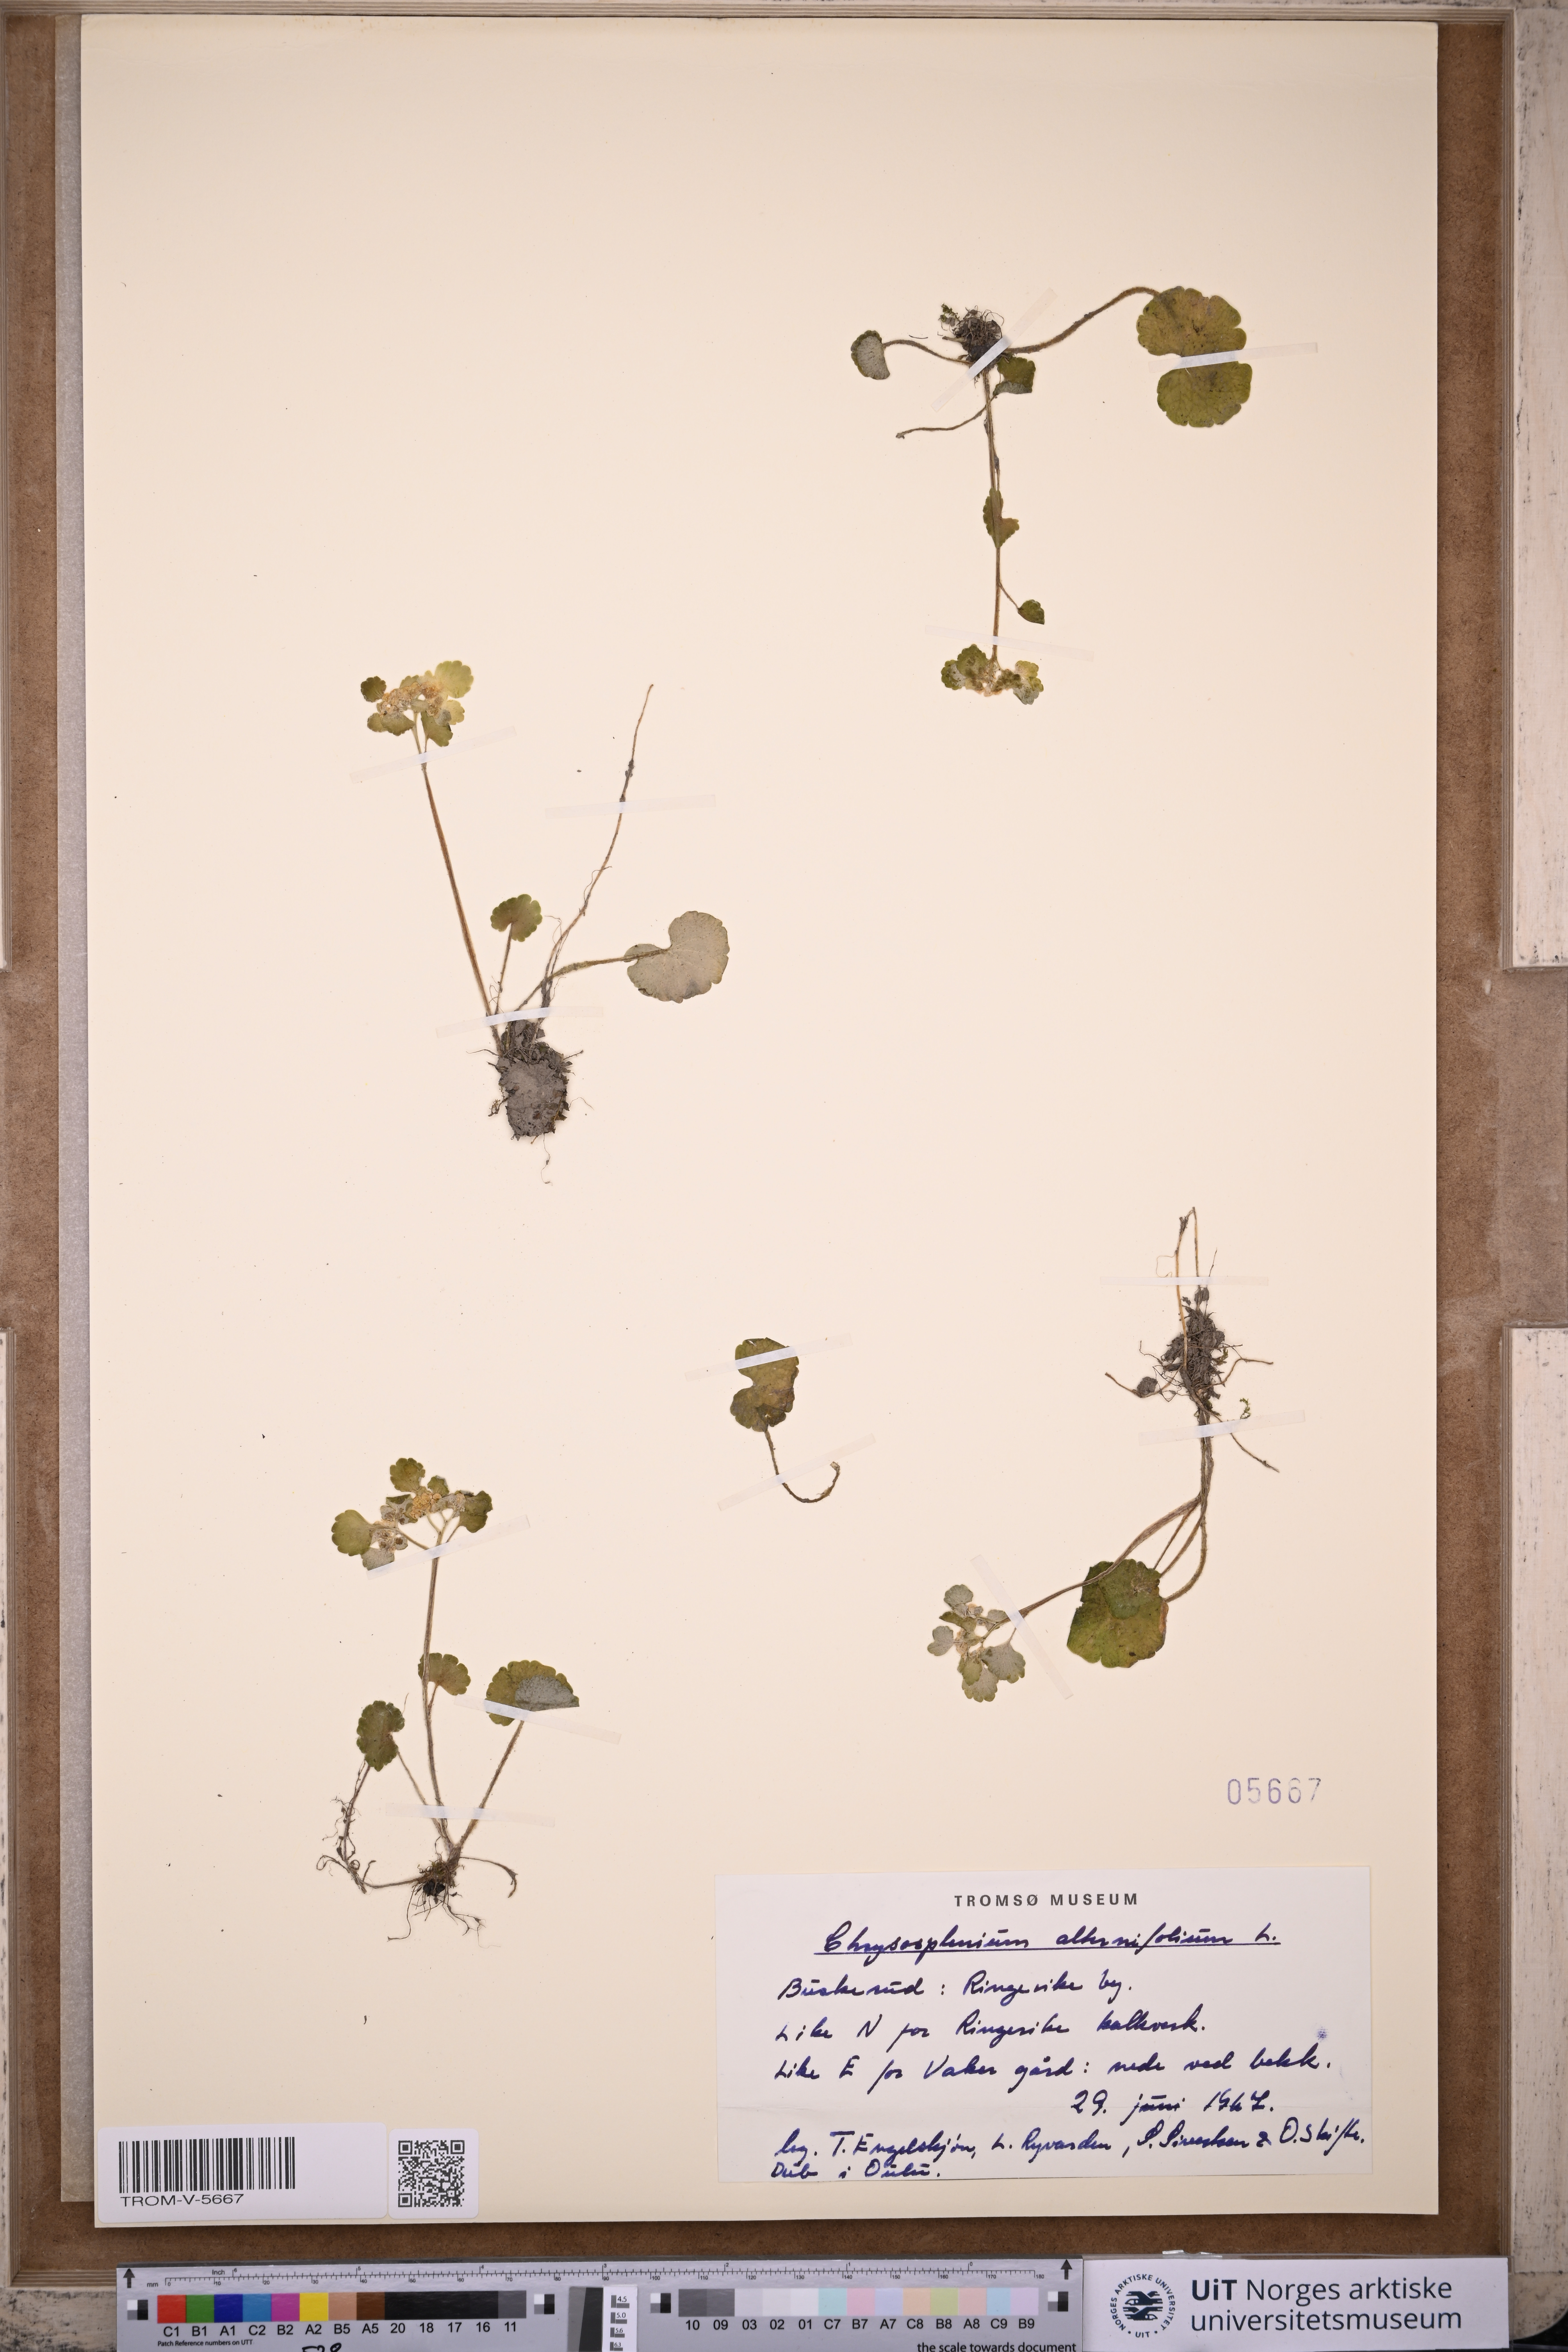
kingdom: Plantae
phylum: Tracheophyta
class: Magnoliopsida
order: Saxifragales
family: Saxifragaceae
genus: Chrysosplenium
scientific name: Chrysosplenium alternifolium
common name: Alternate-leaved golden-saxifrage
